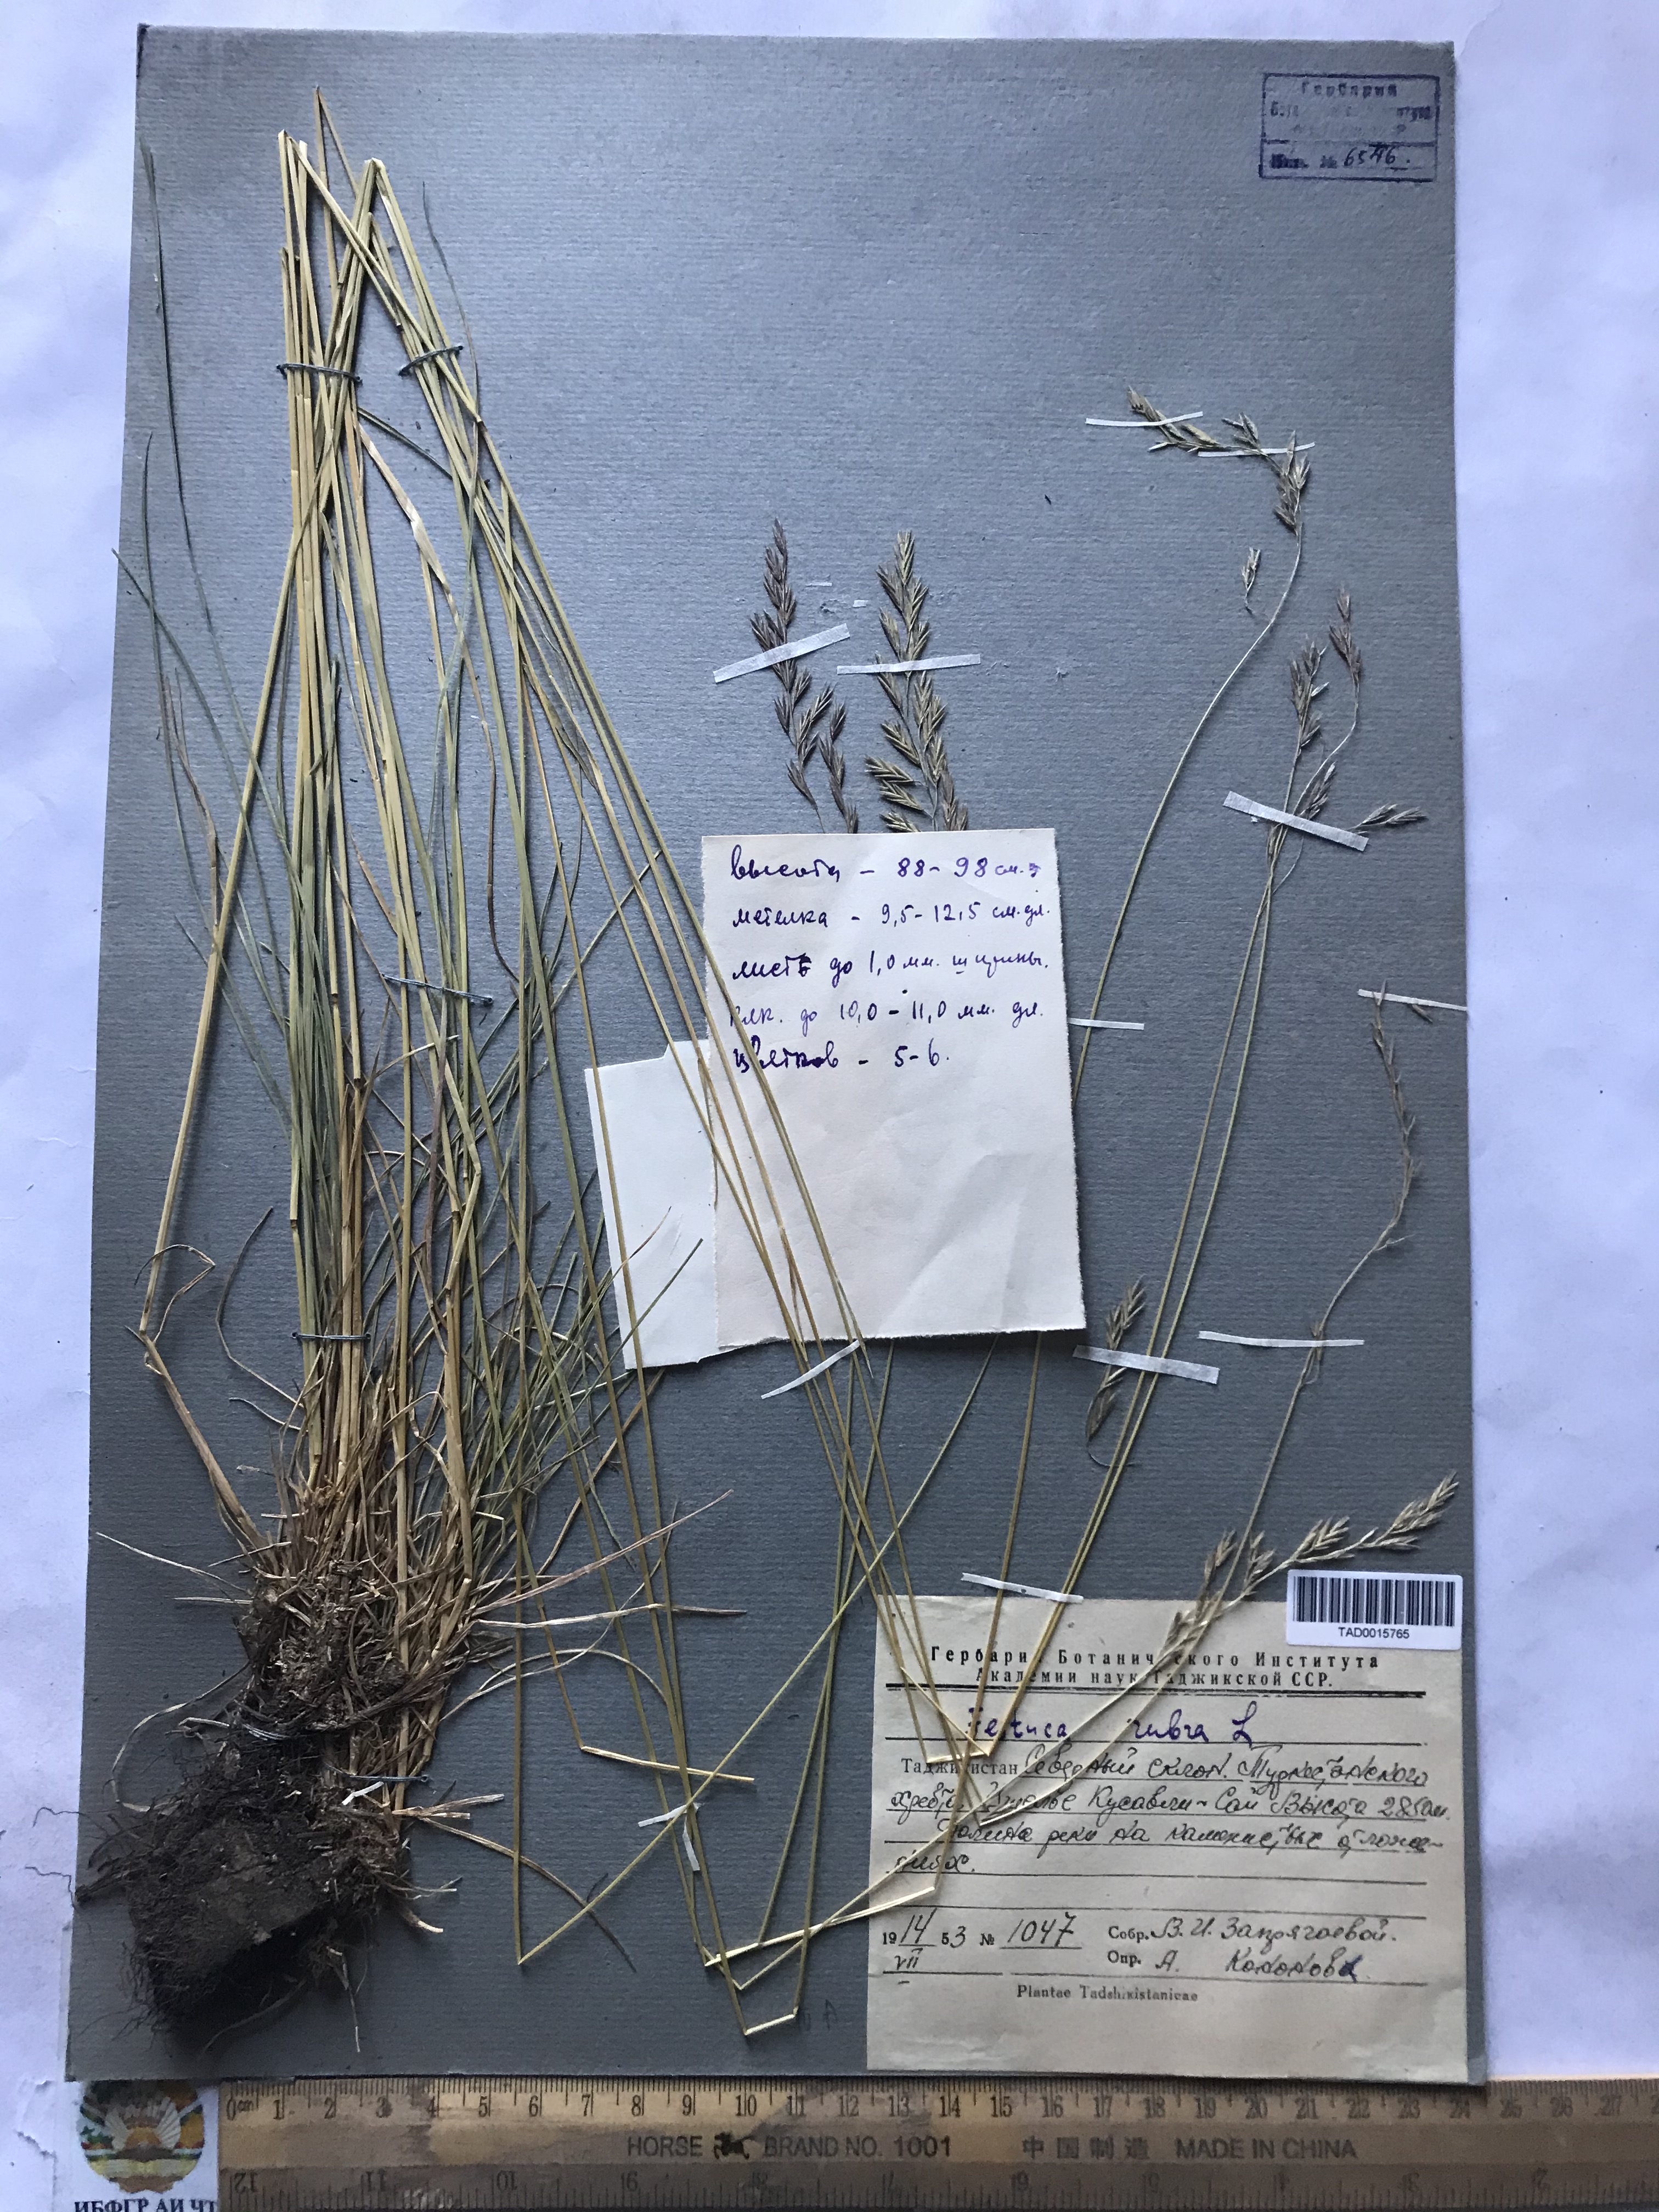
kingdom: Plantae
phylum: Tracheophyta
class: Liliopsida
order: Poales
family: Poaceae
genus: Festuca
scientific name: Festuca rubra
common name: Red fescue
